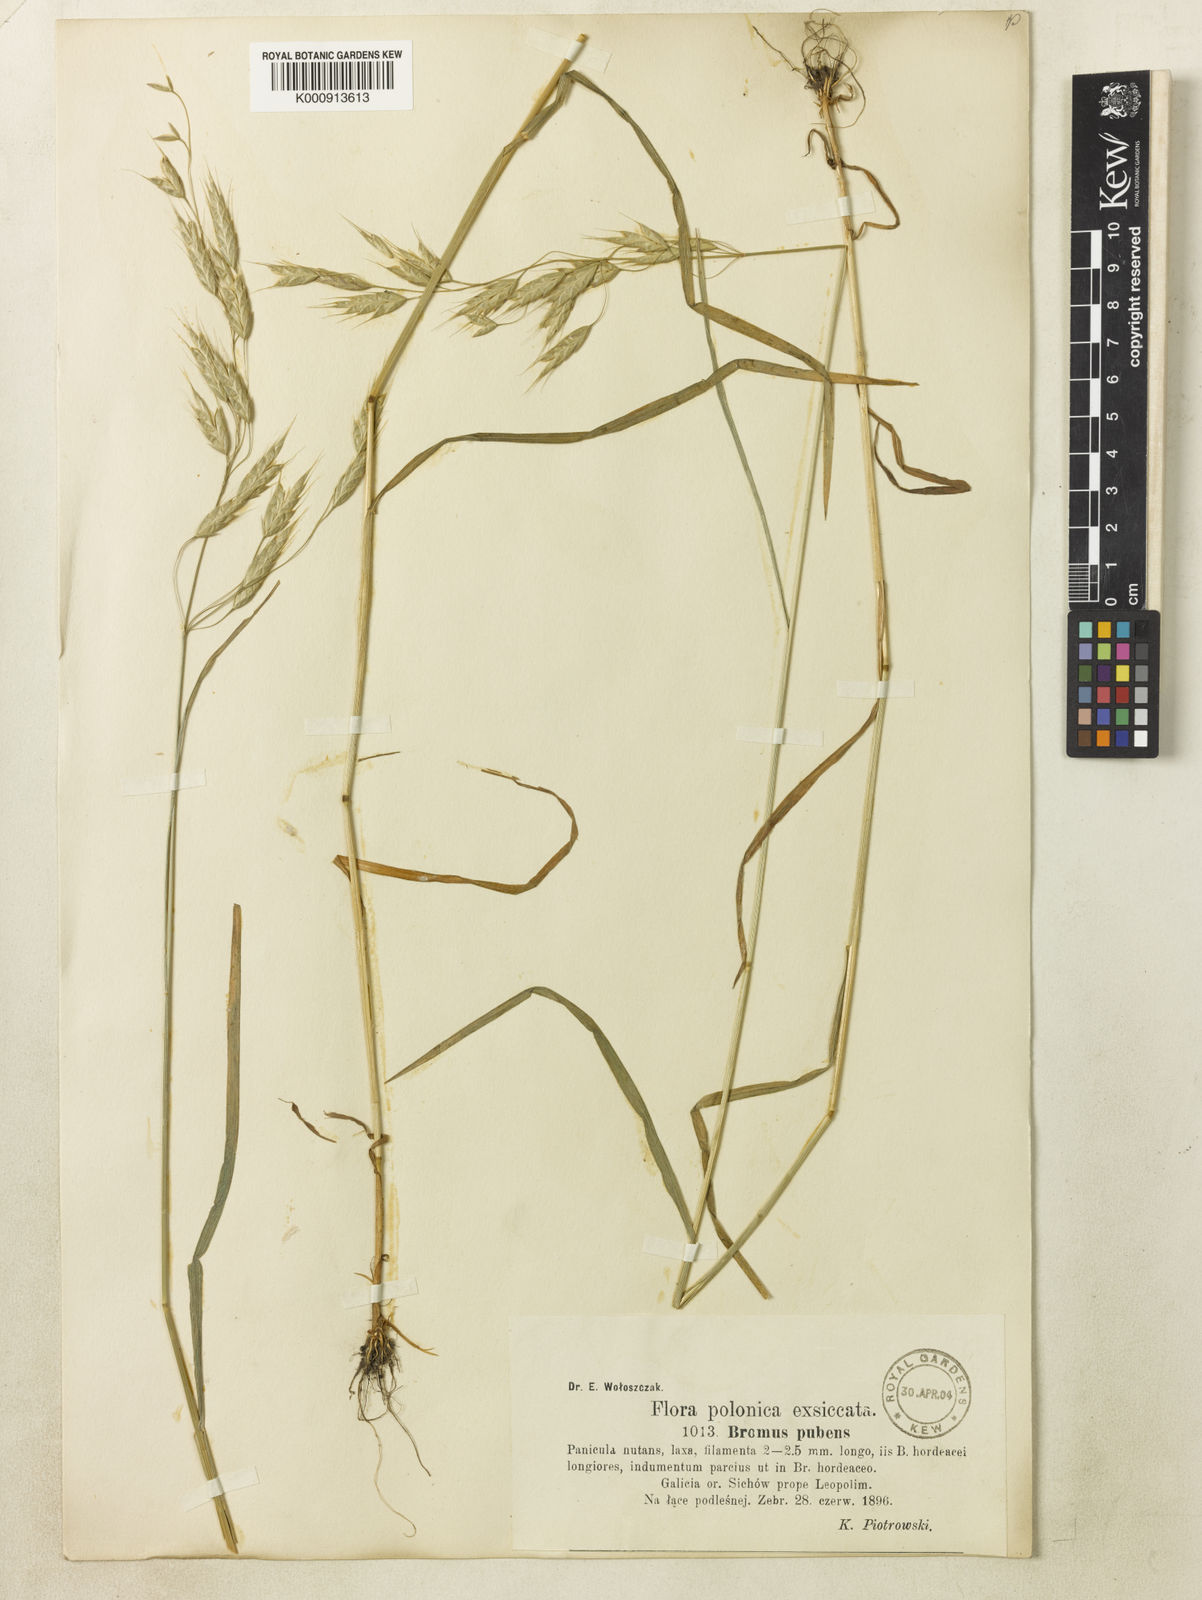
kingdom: Plantae
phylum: Tracheophyta
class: Liliopsida
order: Poales
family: Poaceae
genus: Bromus
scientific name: Bromus commutatus
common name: Meadow brome
